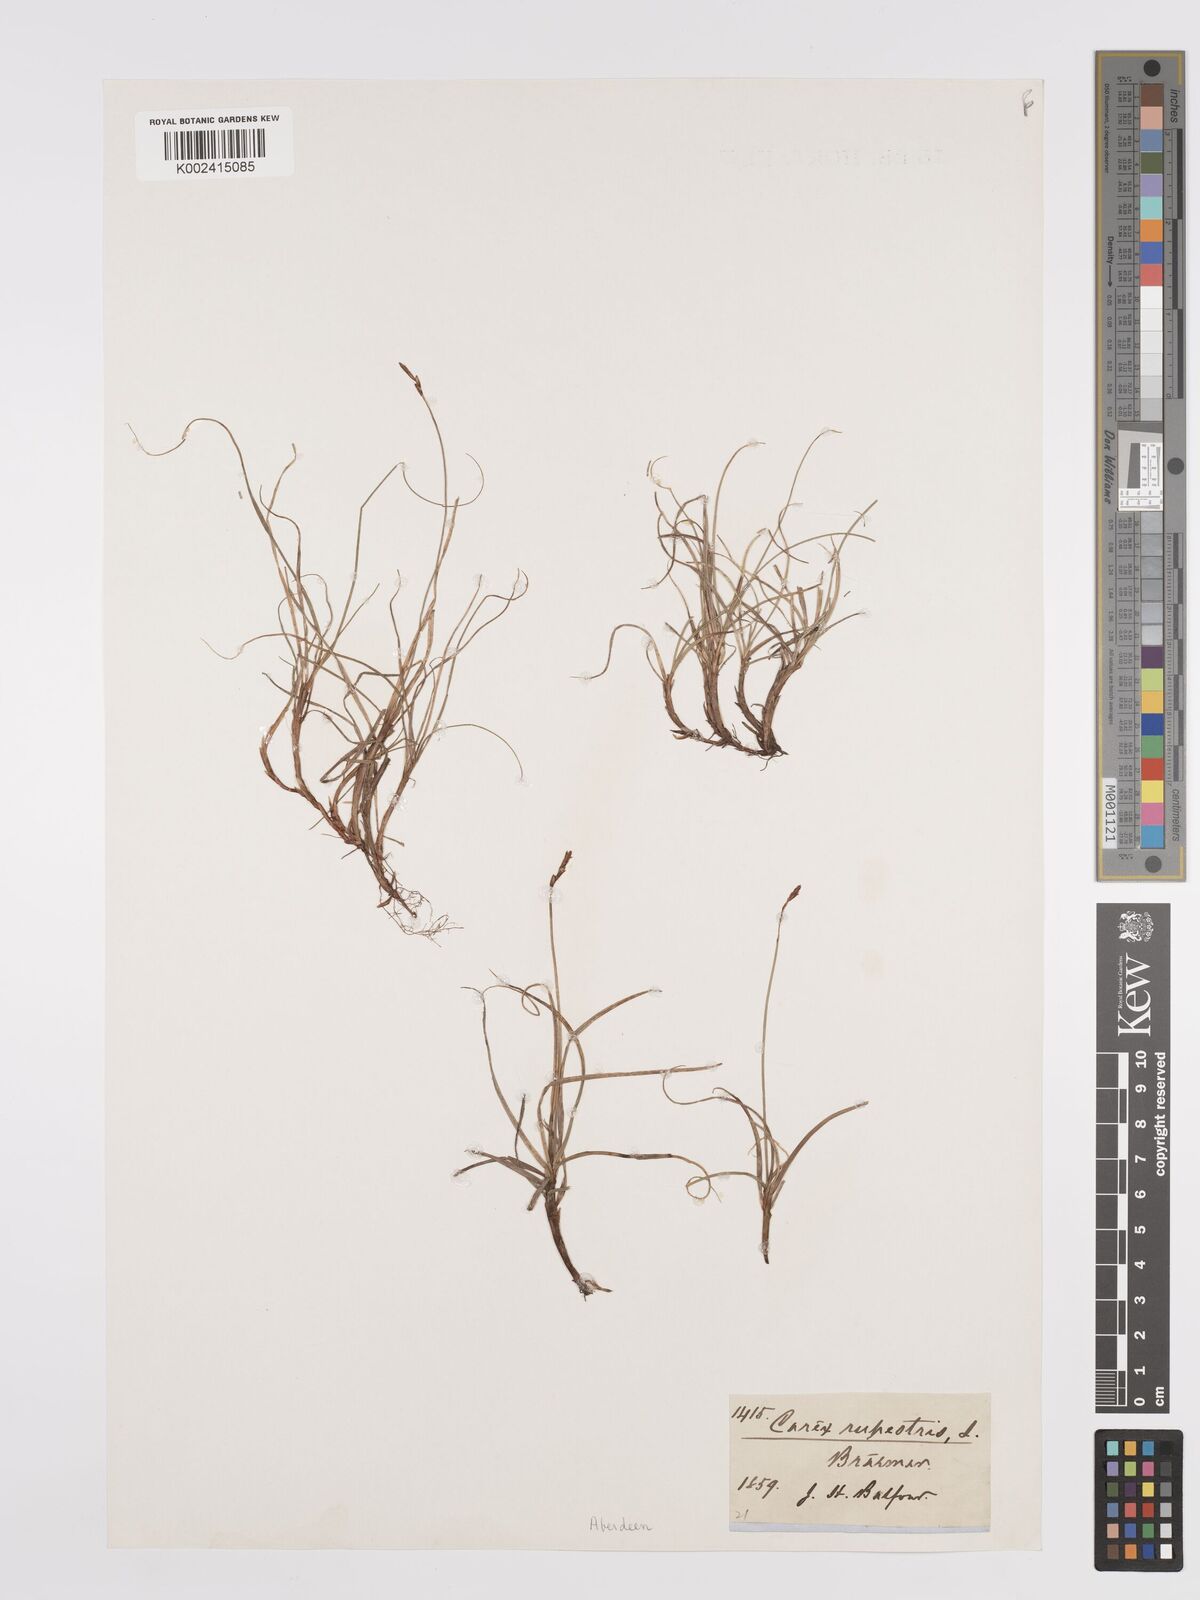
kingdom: Plantae
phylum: Tracheophyta
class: Liliopsida
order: Poales
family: Cyperaceae
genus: Carex
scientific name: Carex rupestris
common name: Rock sedge
